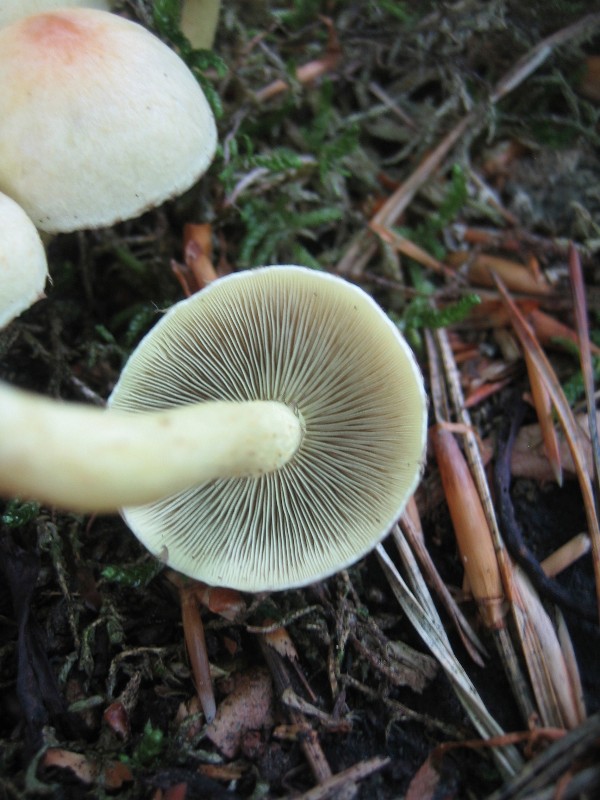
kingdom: Fungi
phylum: Basidiomycota
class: Agaricomycetes
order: Agaricales
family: Strophariaceae
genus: Hypholoma
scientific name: Hypholoma fasciculare
